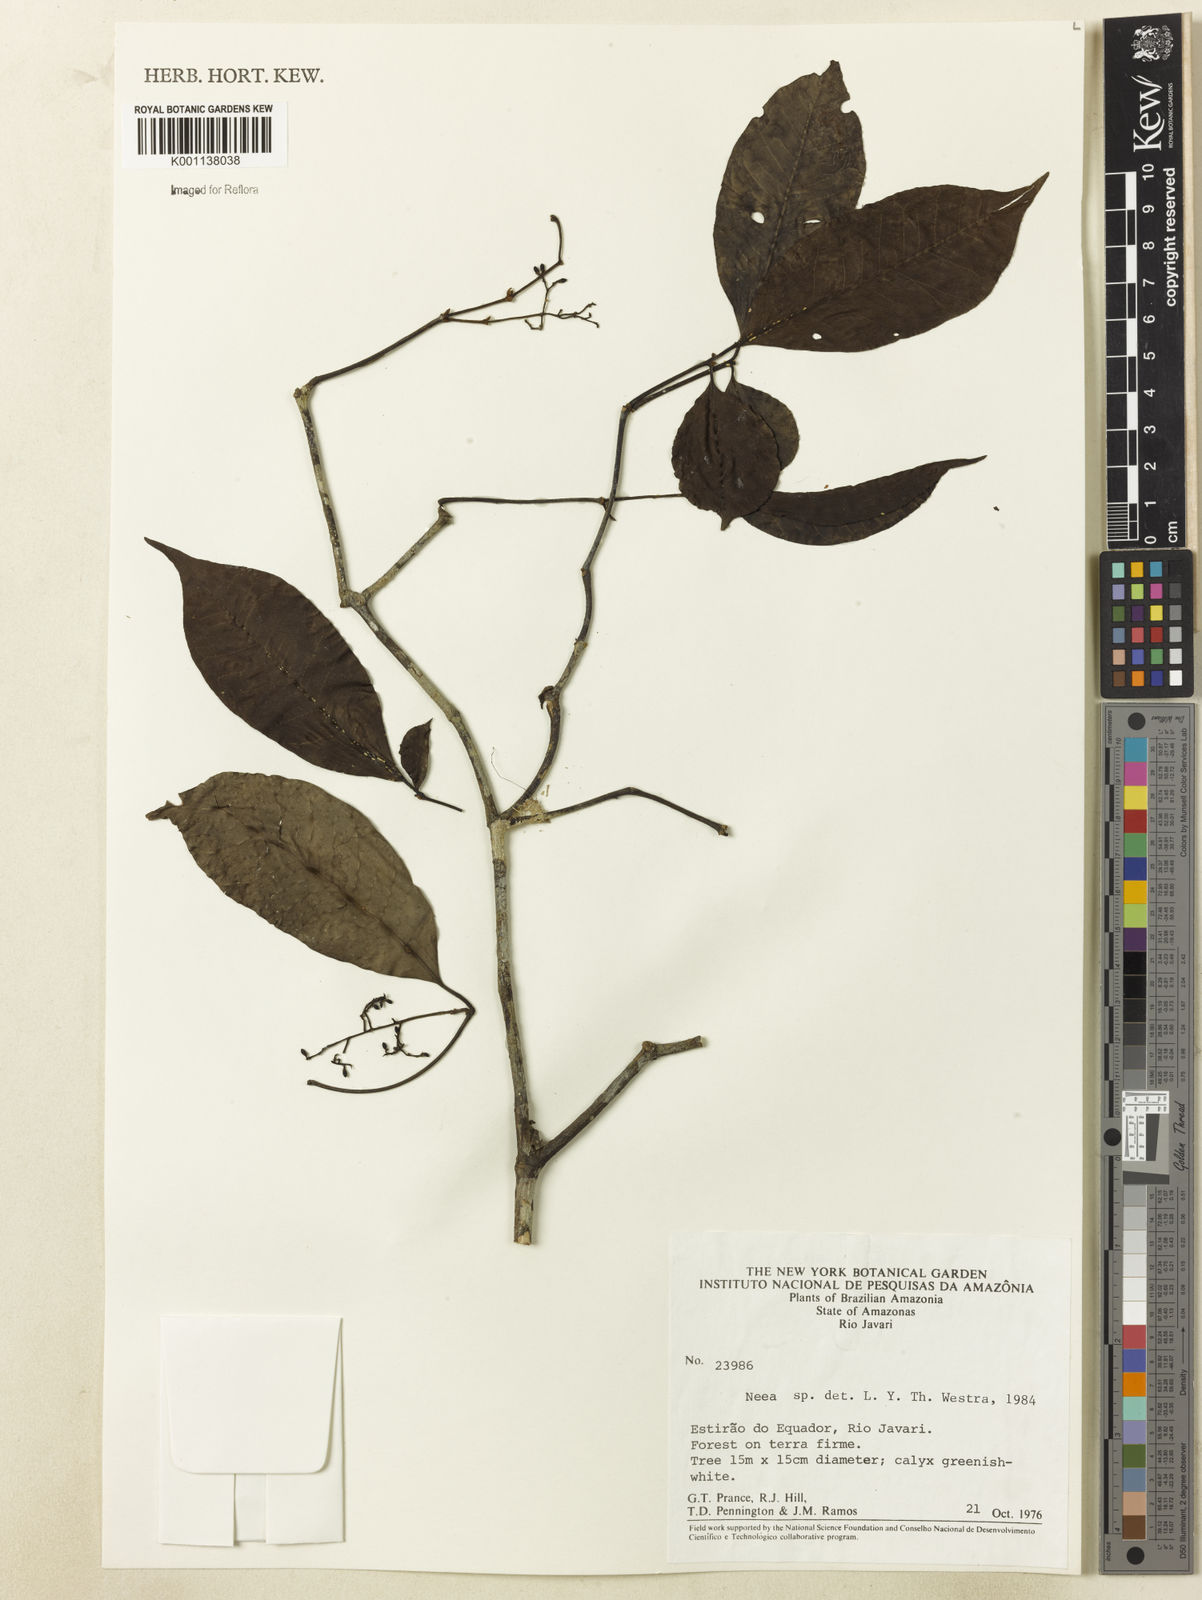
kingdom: Plantae
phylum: Tracheophyta
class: Magnoliopsida
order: Caryophyllales
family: Nyctaginaceae
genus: Neea
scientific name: Neea
